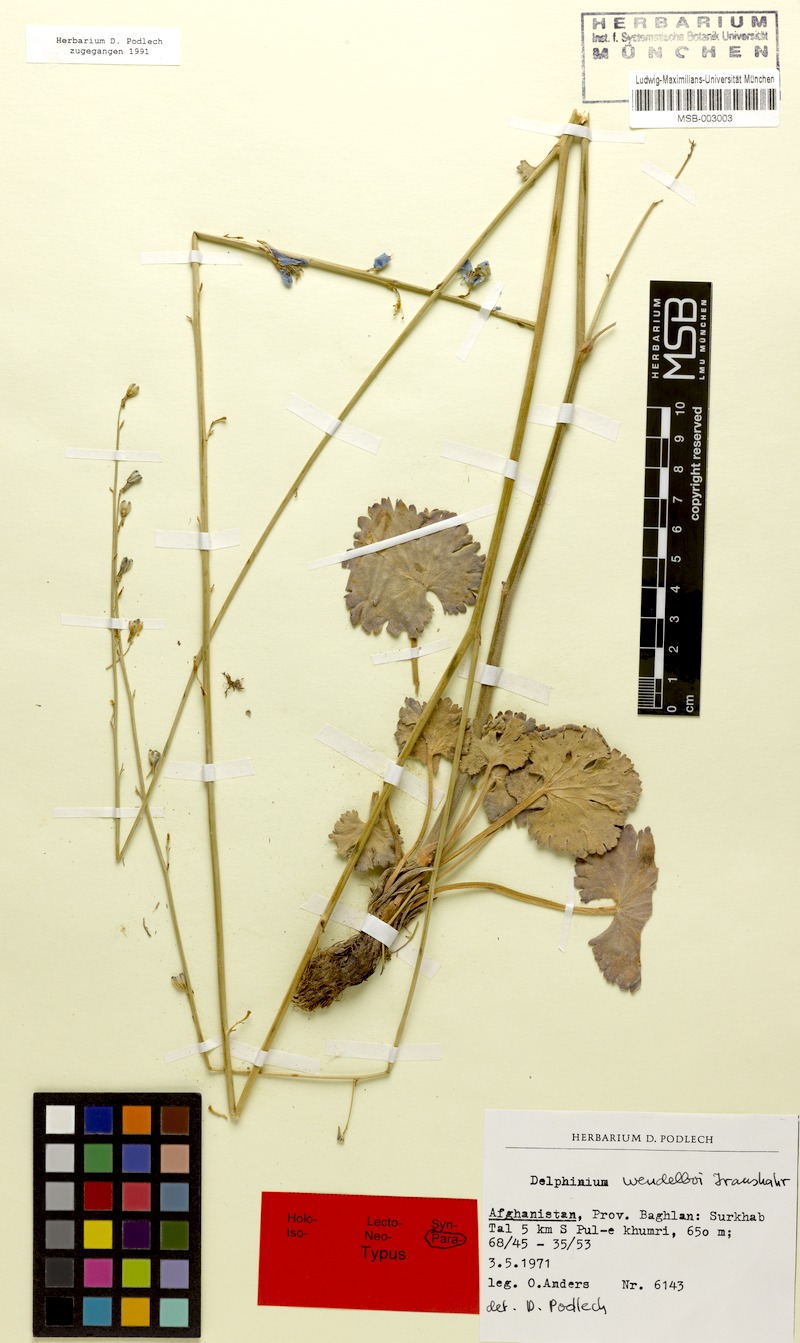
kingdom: Plantae
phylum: Tracheophyta
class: Magnoliopsida
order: Ranunculales
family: Ranunculaceae
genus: Delphinium
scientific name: Delphinium wendelboi
